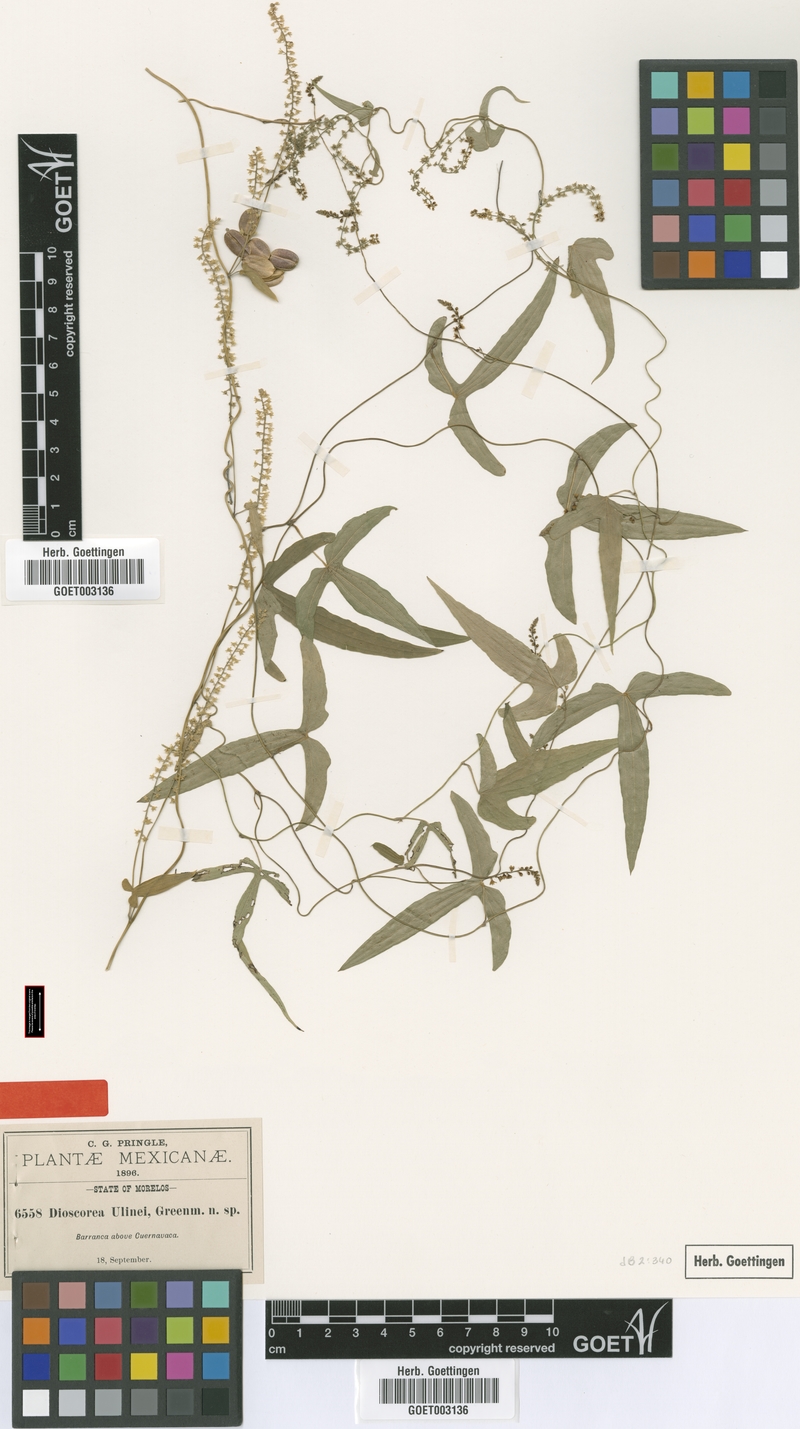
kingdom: Plantae
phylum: Tracheophyta
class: Liliopsida
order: Dioscoreales
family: Dioscoreaceae
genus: Dioscorea
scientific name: Dioscorea ulinei
